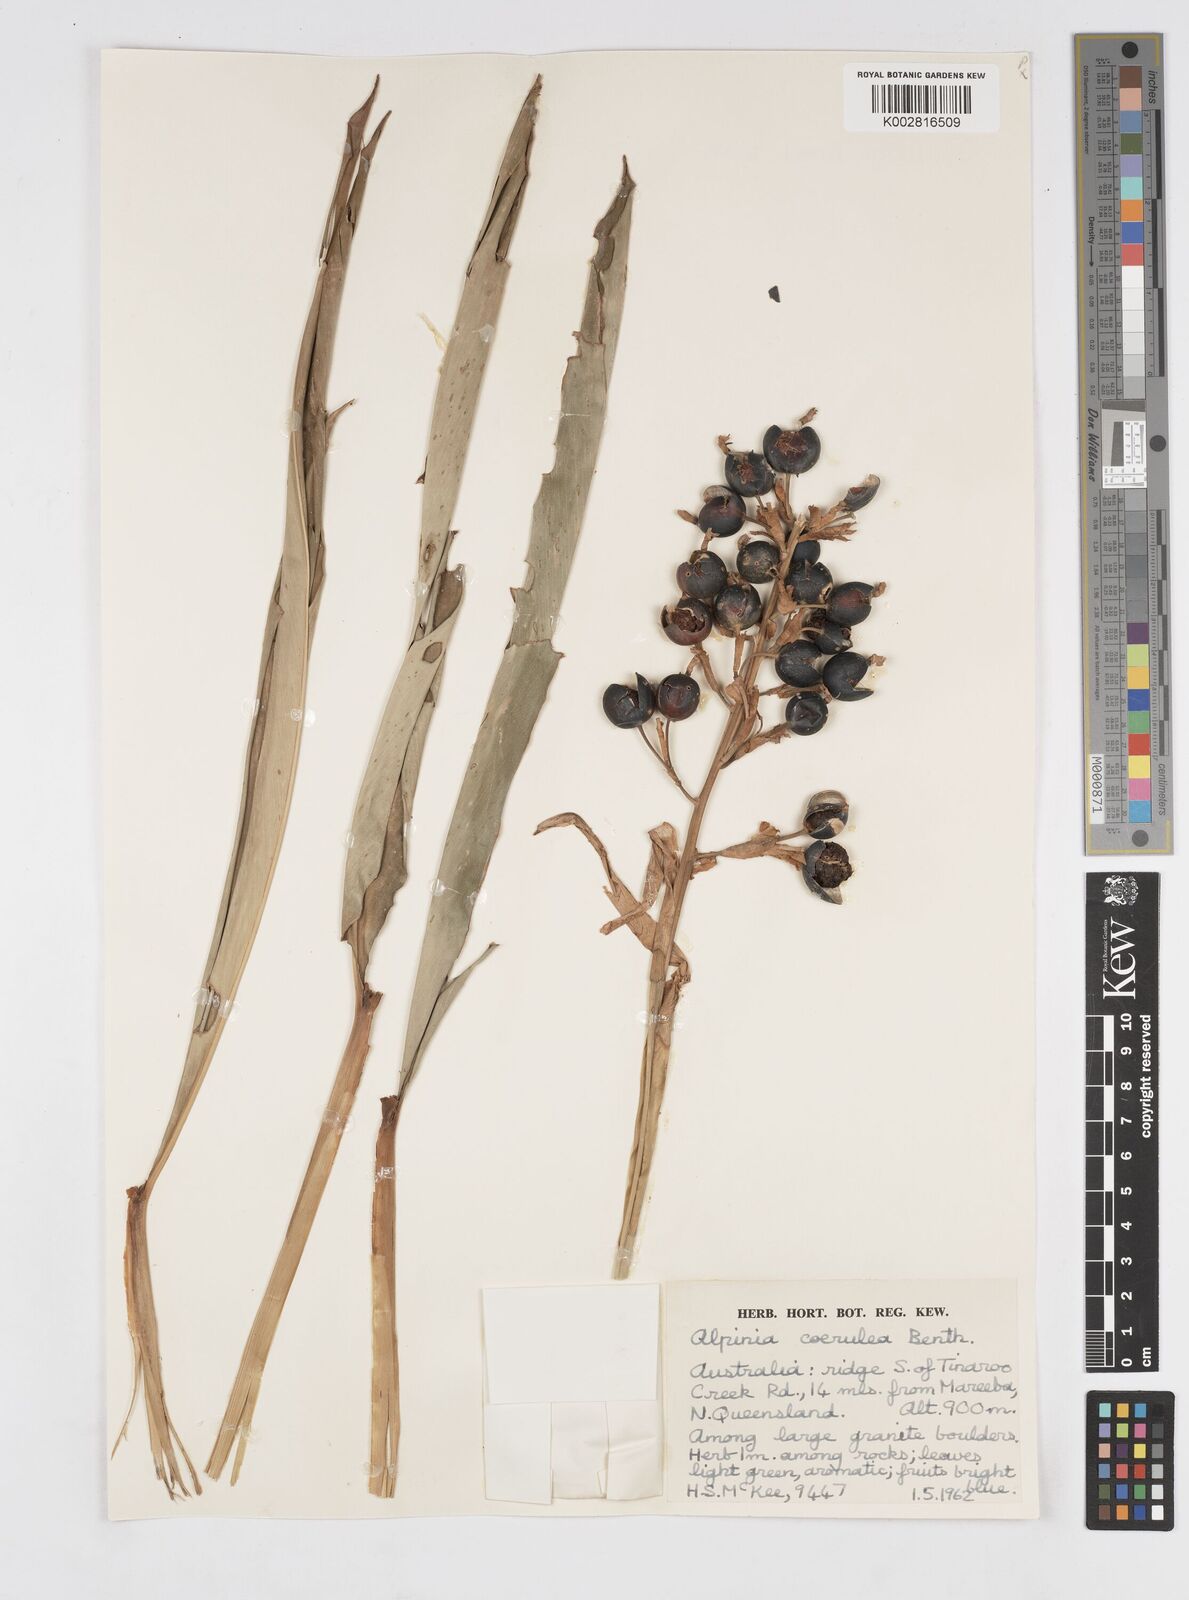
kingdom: Plantae
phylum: Tracheophyta
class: Liliopsida
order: Zingiberales
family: Zingiberaceae
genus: Alpinia
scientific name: Alpinia
